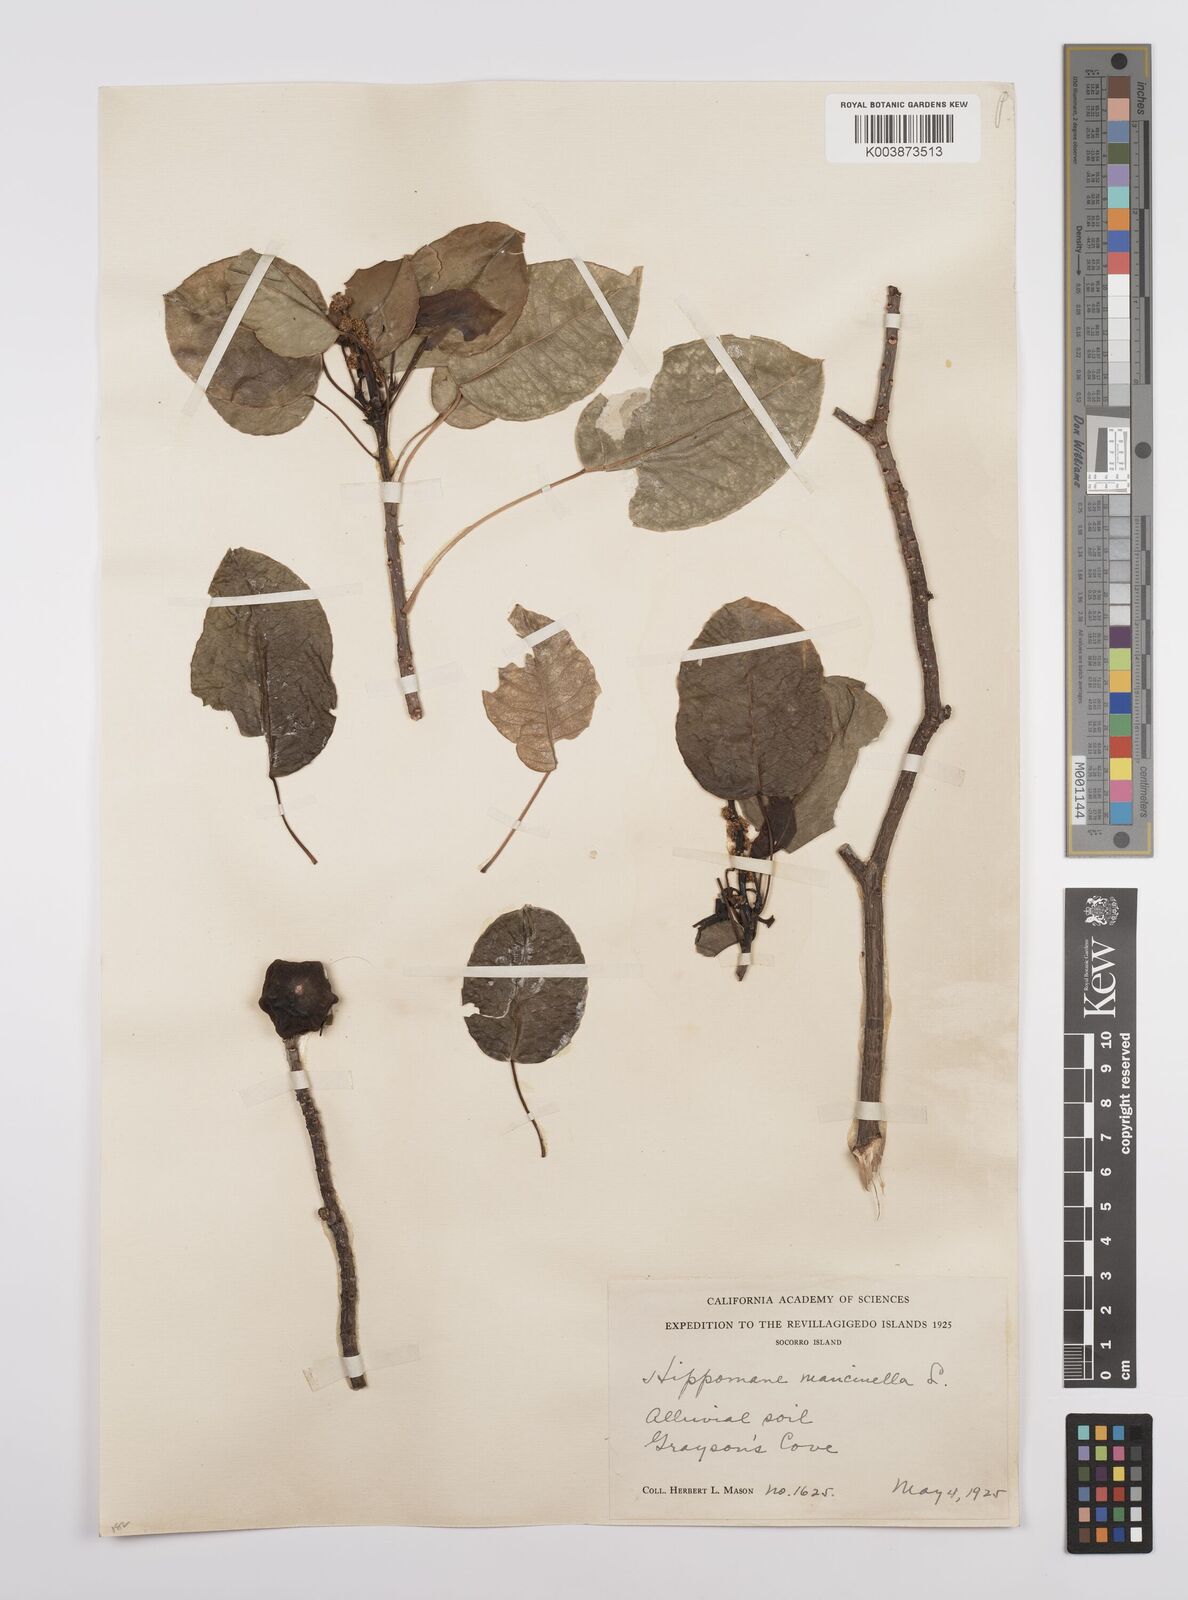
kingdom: Plantae
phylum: Tracheophyta
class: Magnoliopsida
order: Malpighiales
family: Euphorbiaceae
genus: Hippomane
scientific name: Hippomane mancinella
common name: Manchineel
